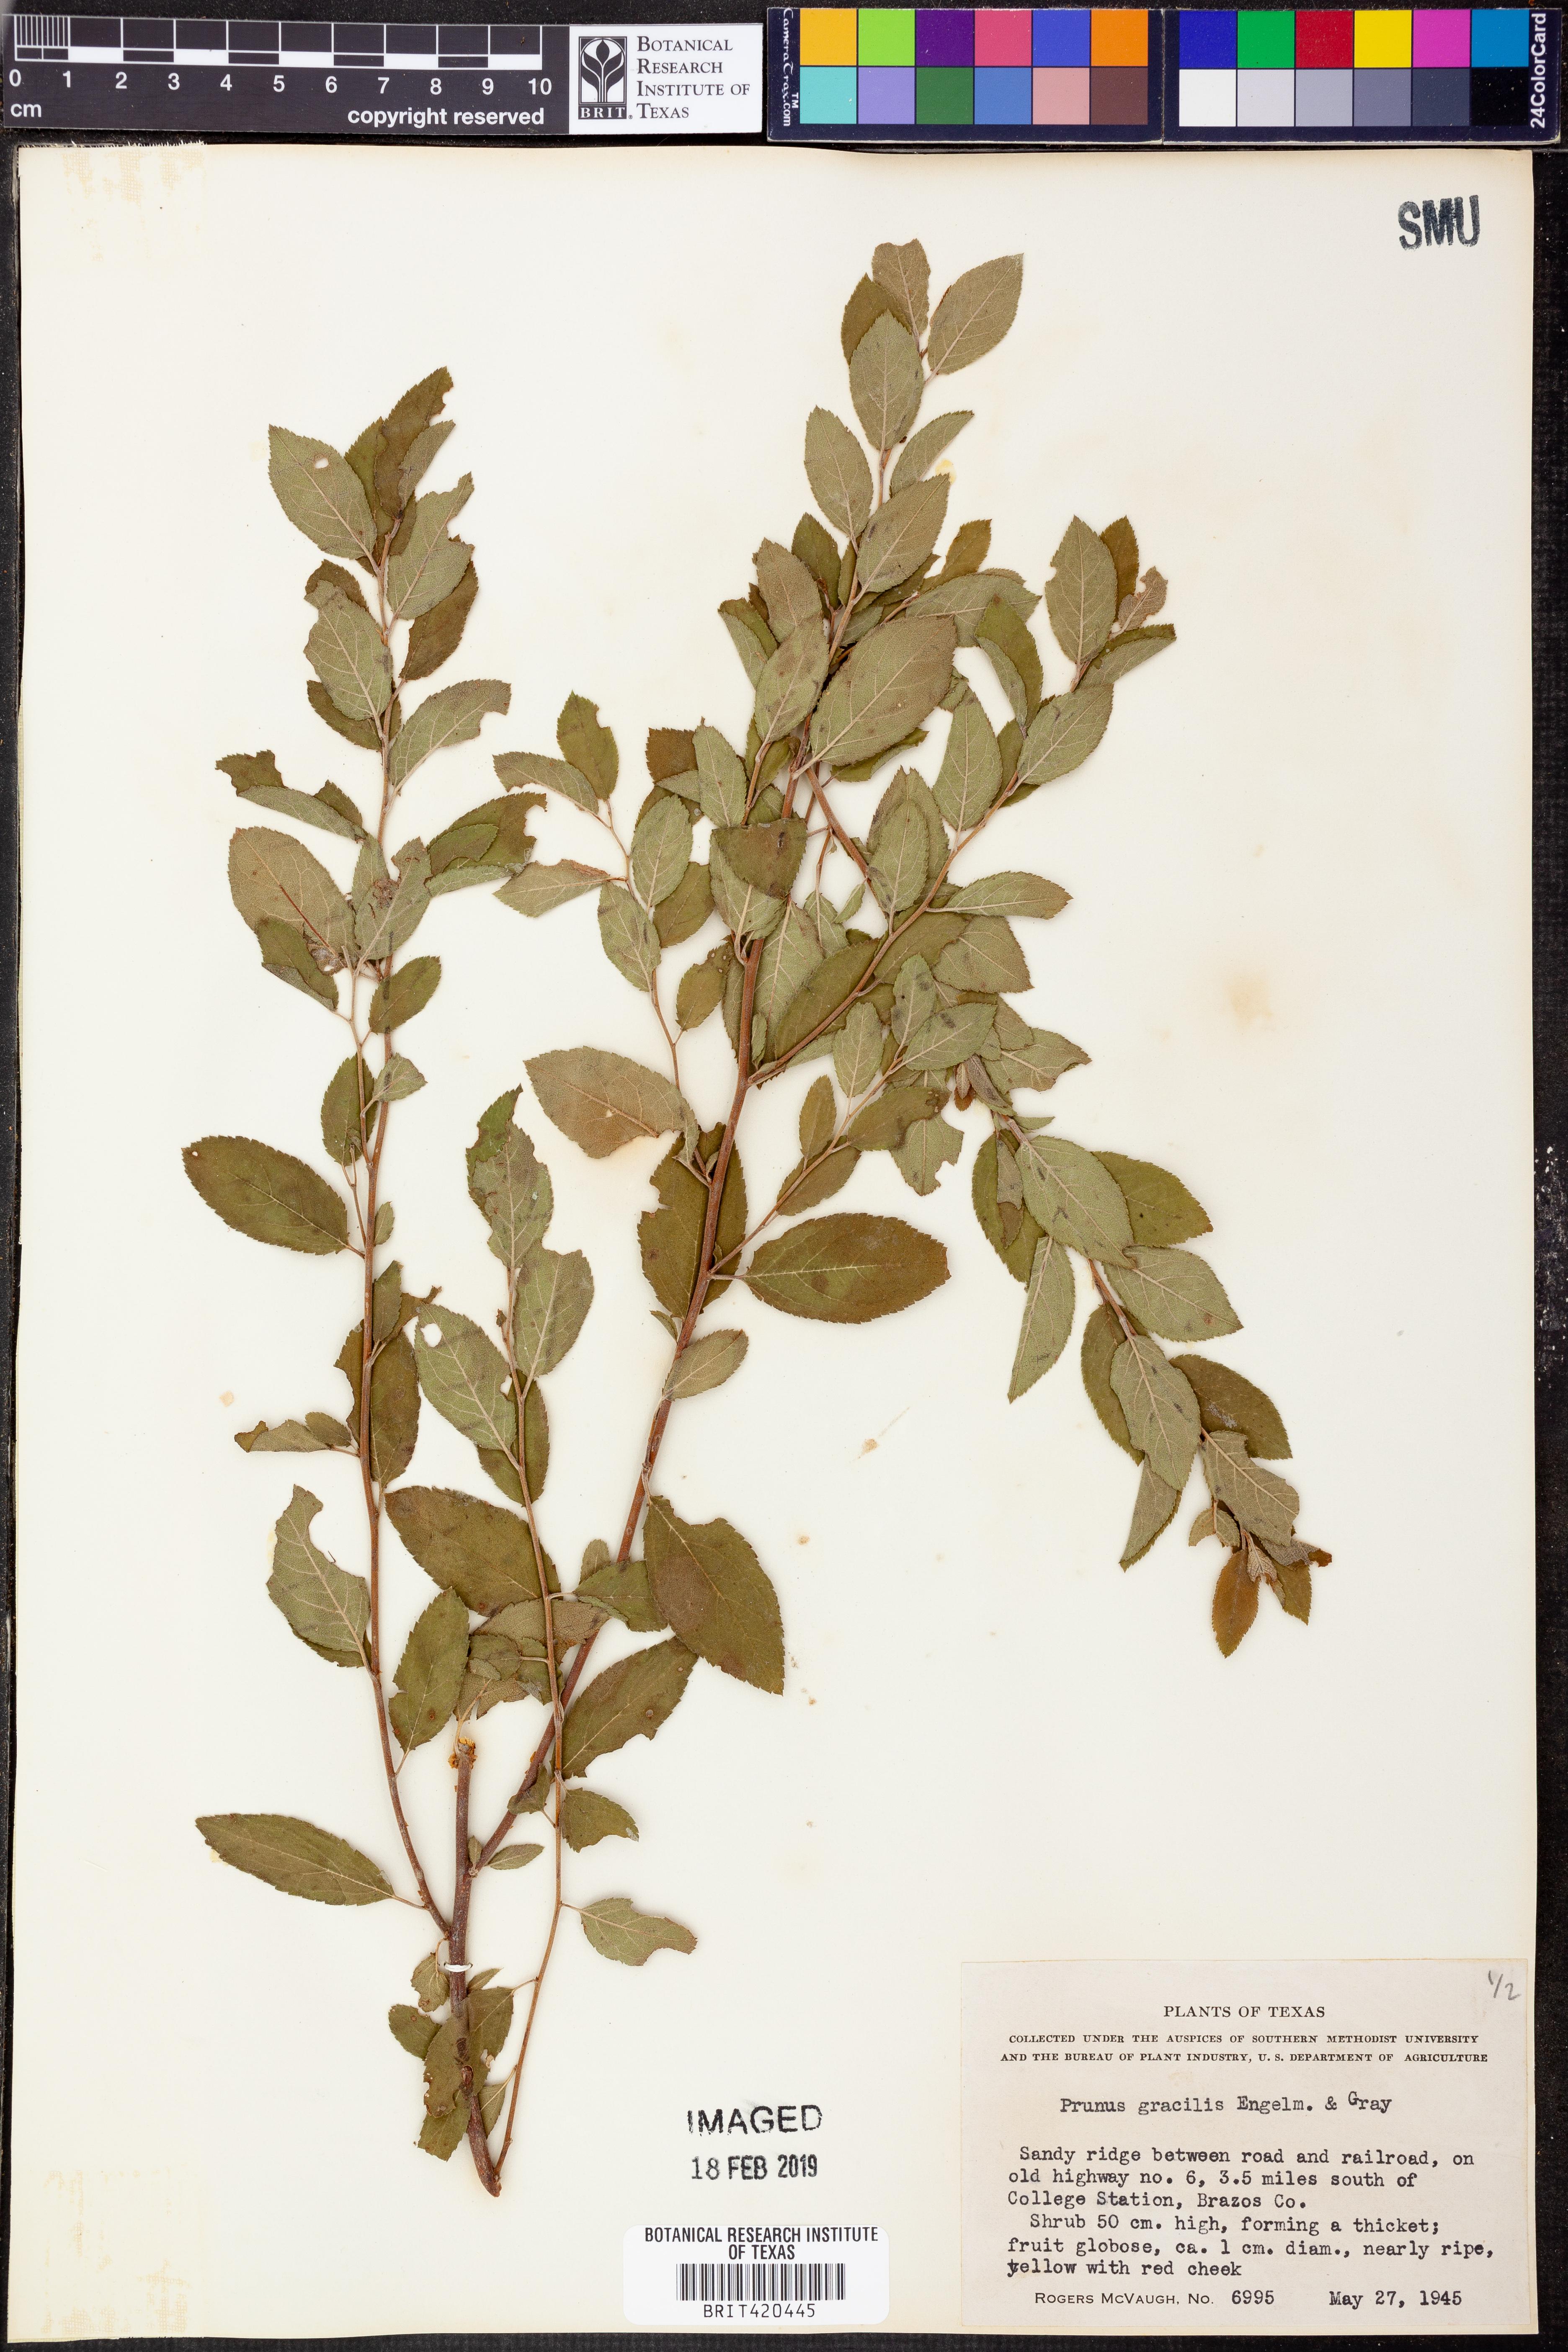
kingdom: Plantae
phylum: Tracheophyta
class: Magnoliopsida
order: Rosales
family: Rosaceae
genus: Prunus
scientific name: Prunus gracilis
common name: Oklahoma plum
